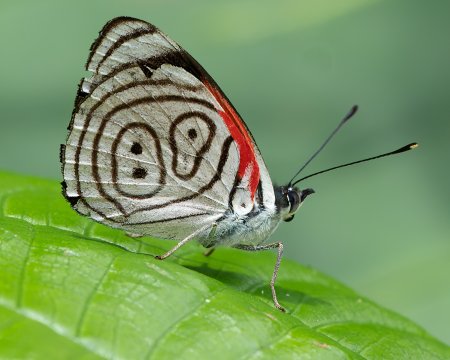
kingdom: Animalia
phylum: Arthropoda
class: Insecta
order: Lepidoptera
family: Nymphalidae
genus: Diaethria
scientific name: Diaethria clymena
